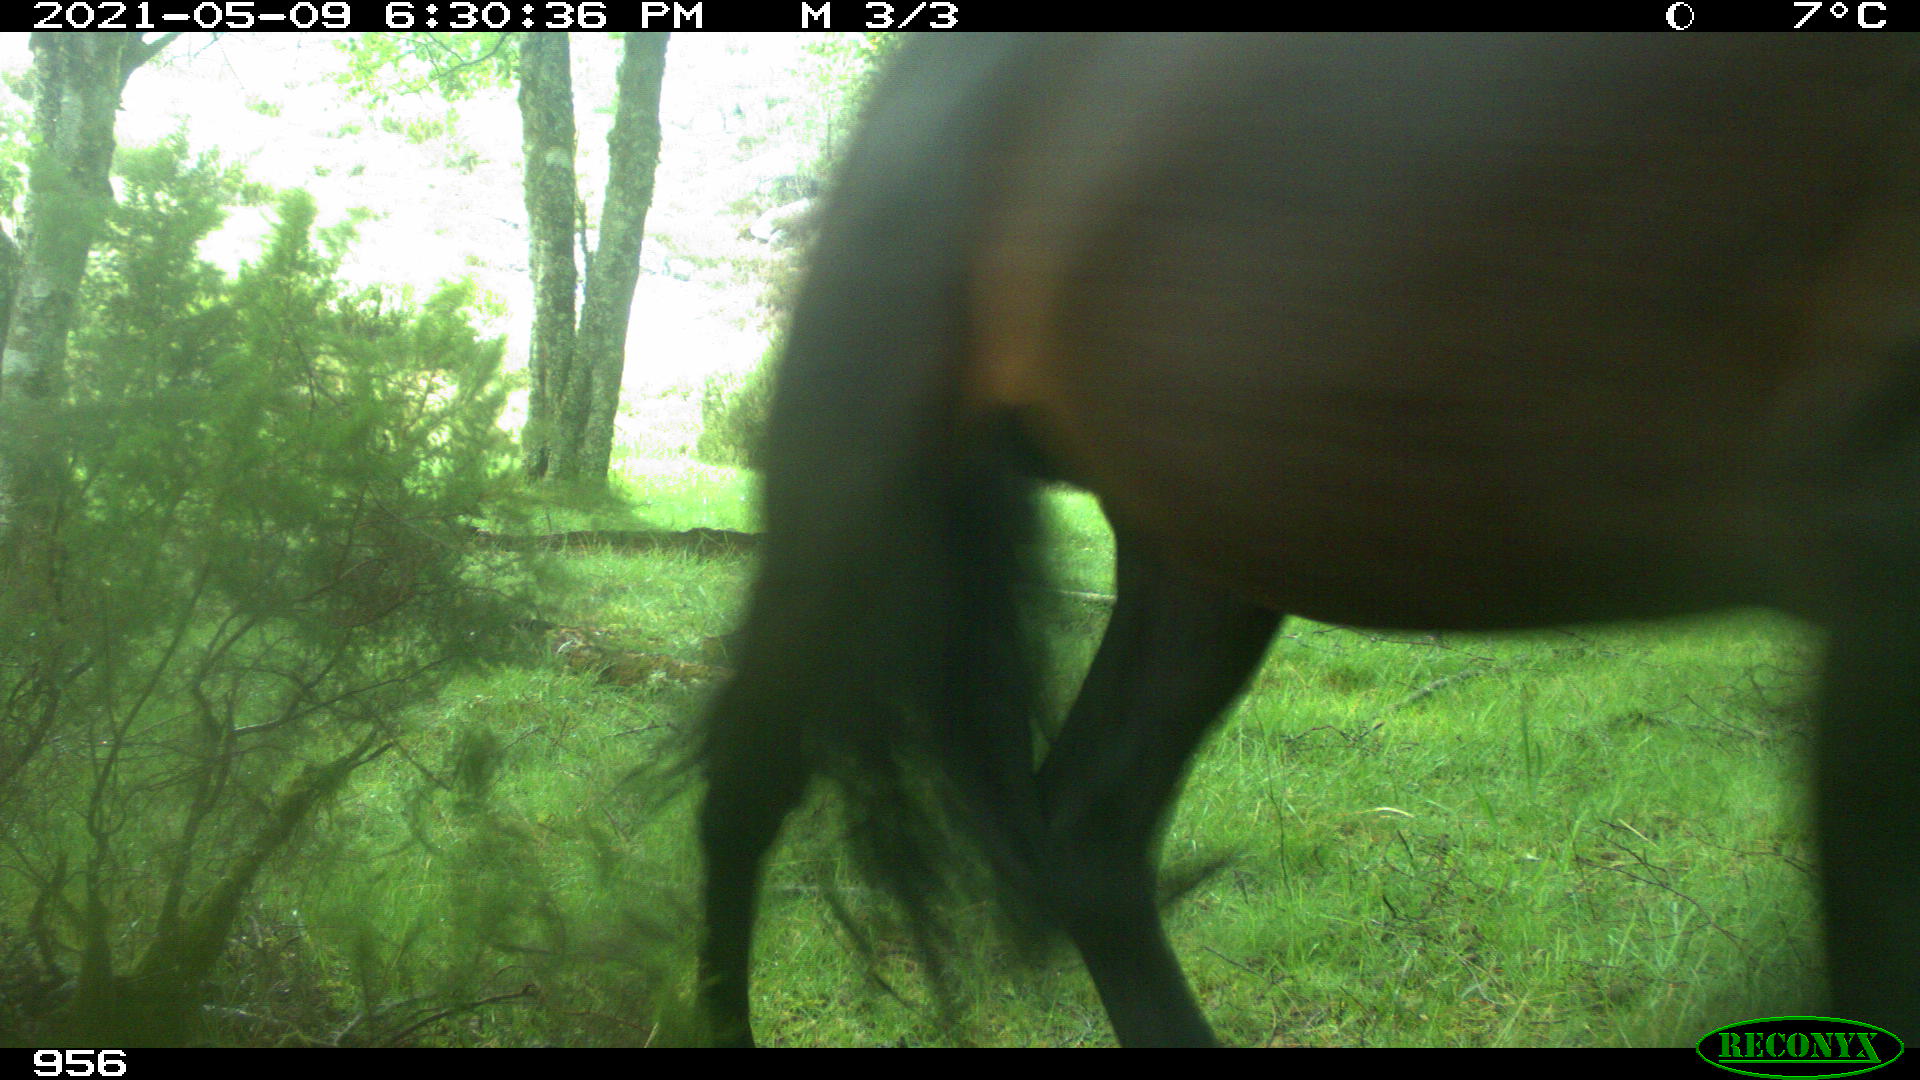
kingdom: Animalia
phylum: Chordata
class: Mammalia
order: Perissodactyla
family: Equidae
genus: Equus
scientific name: Equus caballus
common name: Horse
